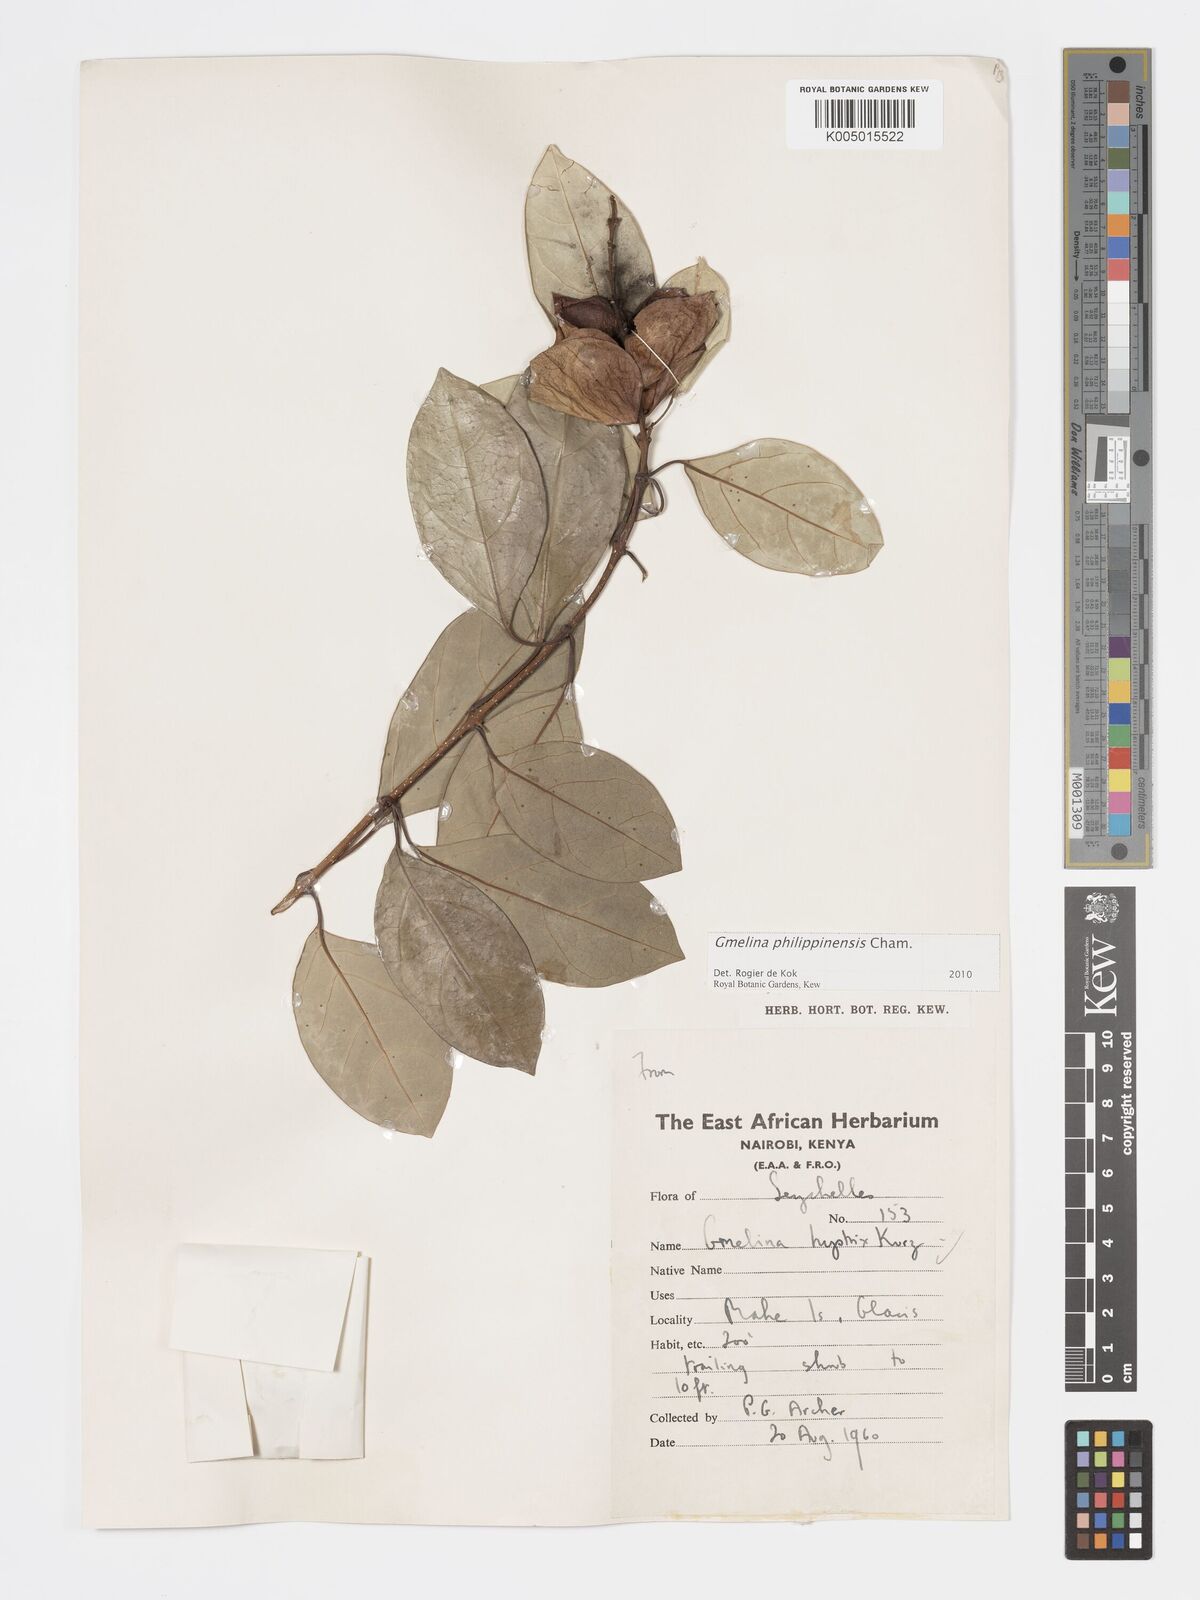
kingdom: Plantae
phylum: Tracheophyta
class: Magnoliopsida
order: Lamiales
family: Lamiaceae
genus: Gmelina
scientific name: Gmelina philippensis
